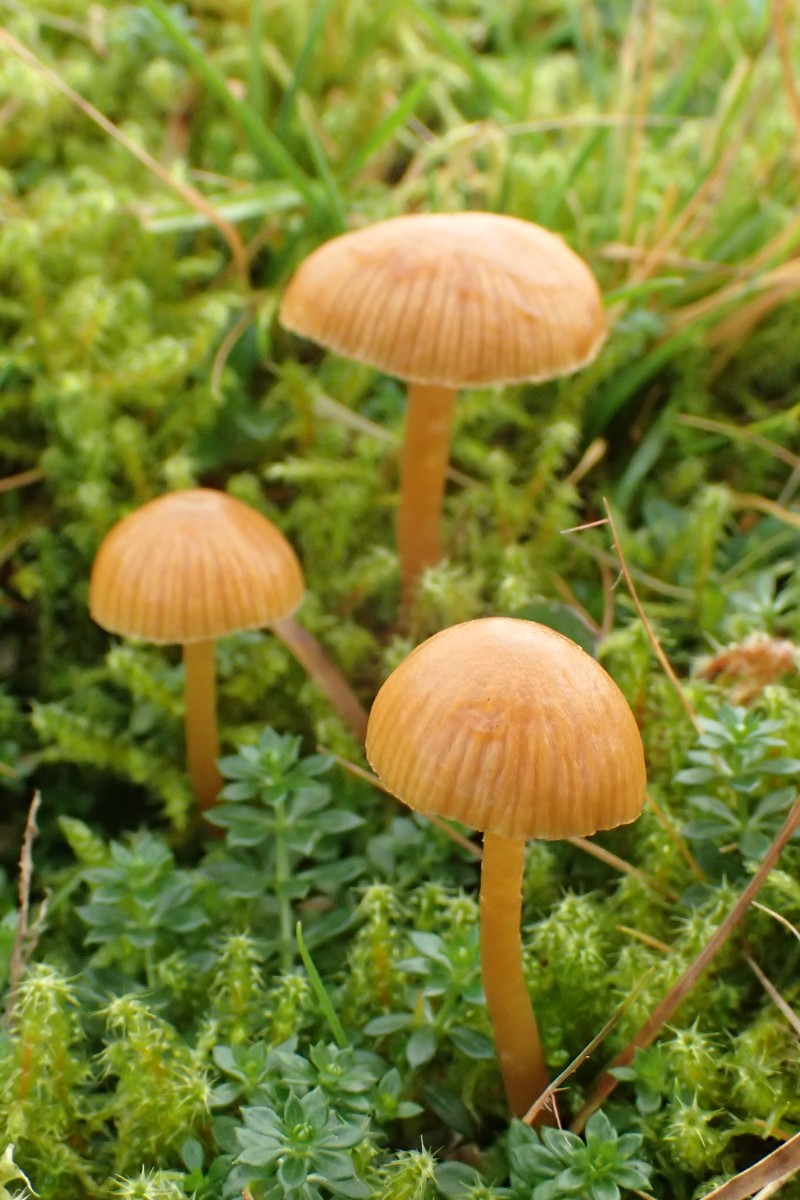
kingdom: Fungi
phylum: Basidiomycota
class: Agaricomycetes
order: Agaricales
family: Hymenogastraceae
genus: Galerina
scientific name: Galerina pumila
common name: honninggul hjelmhat
